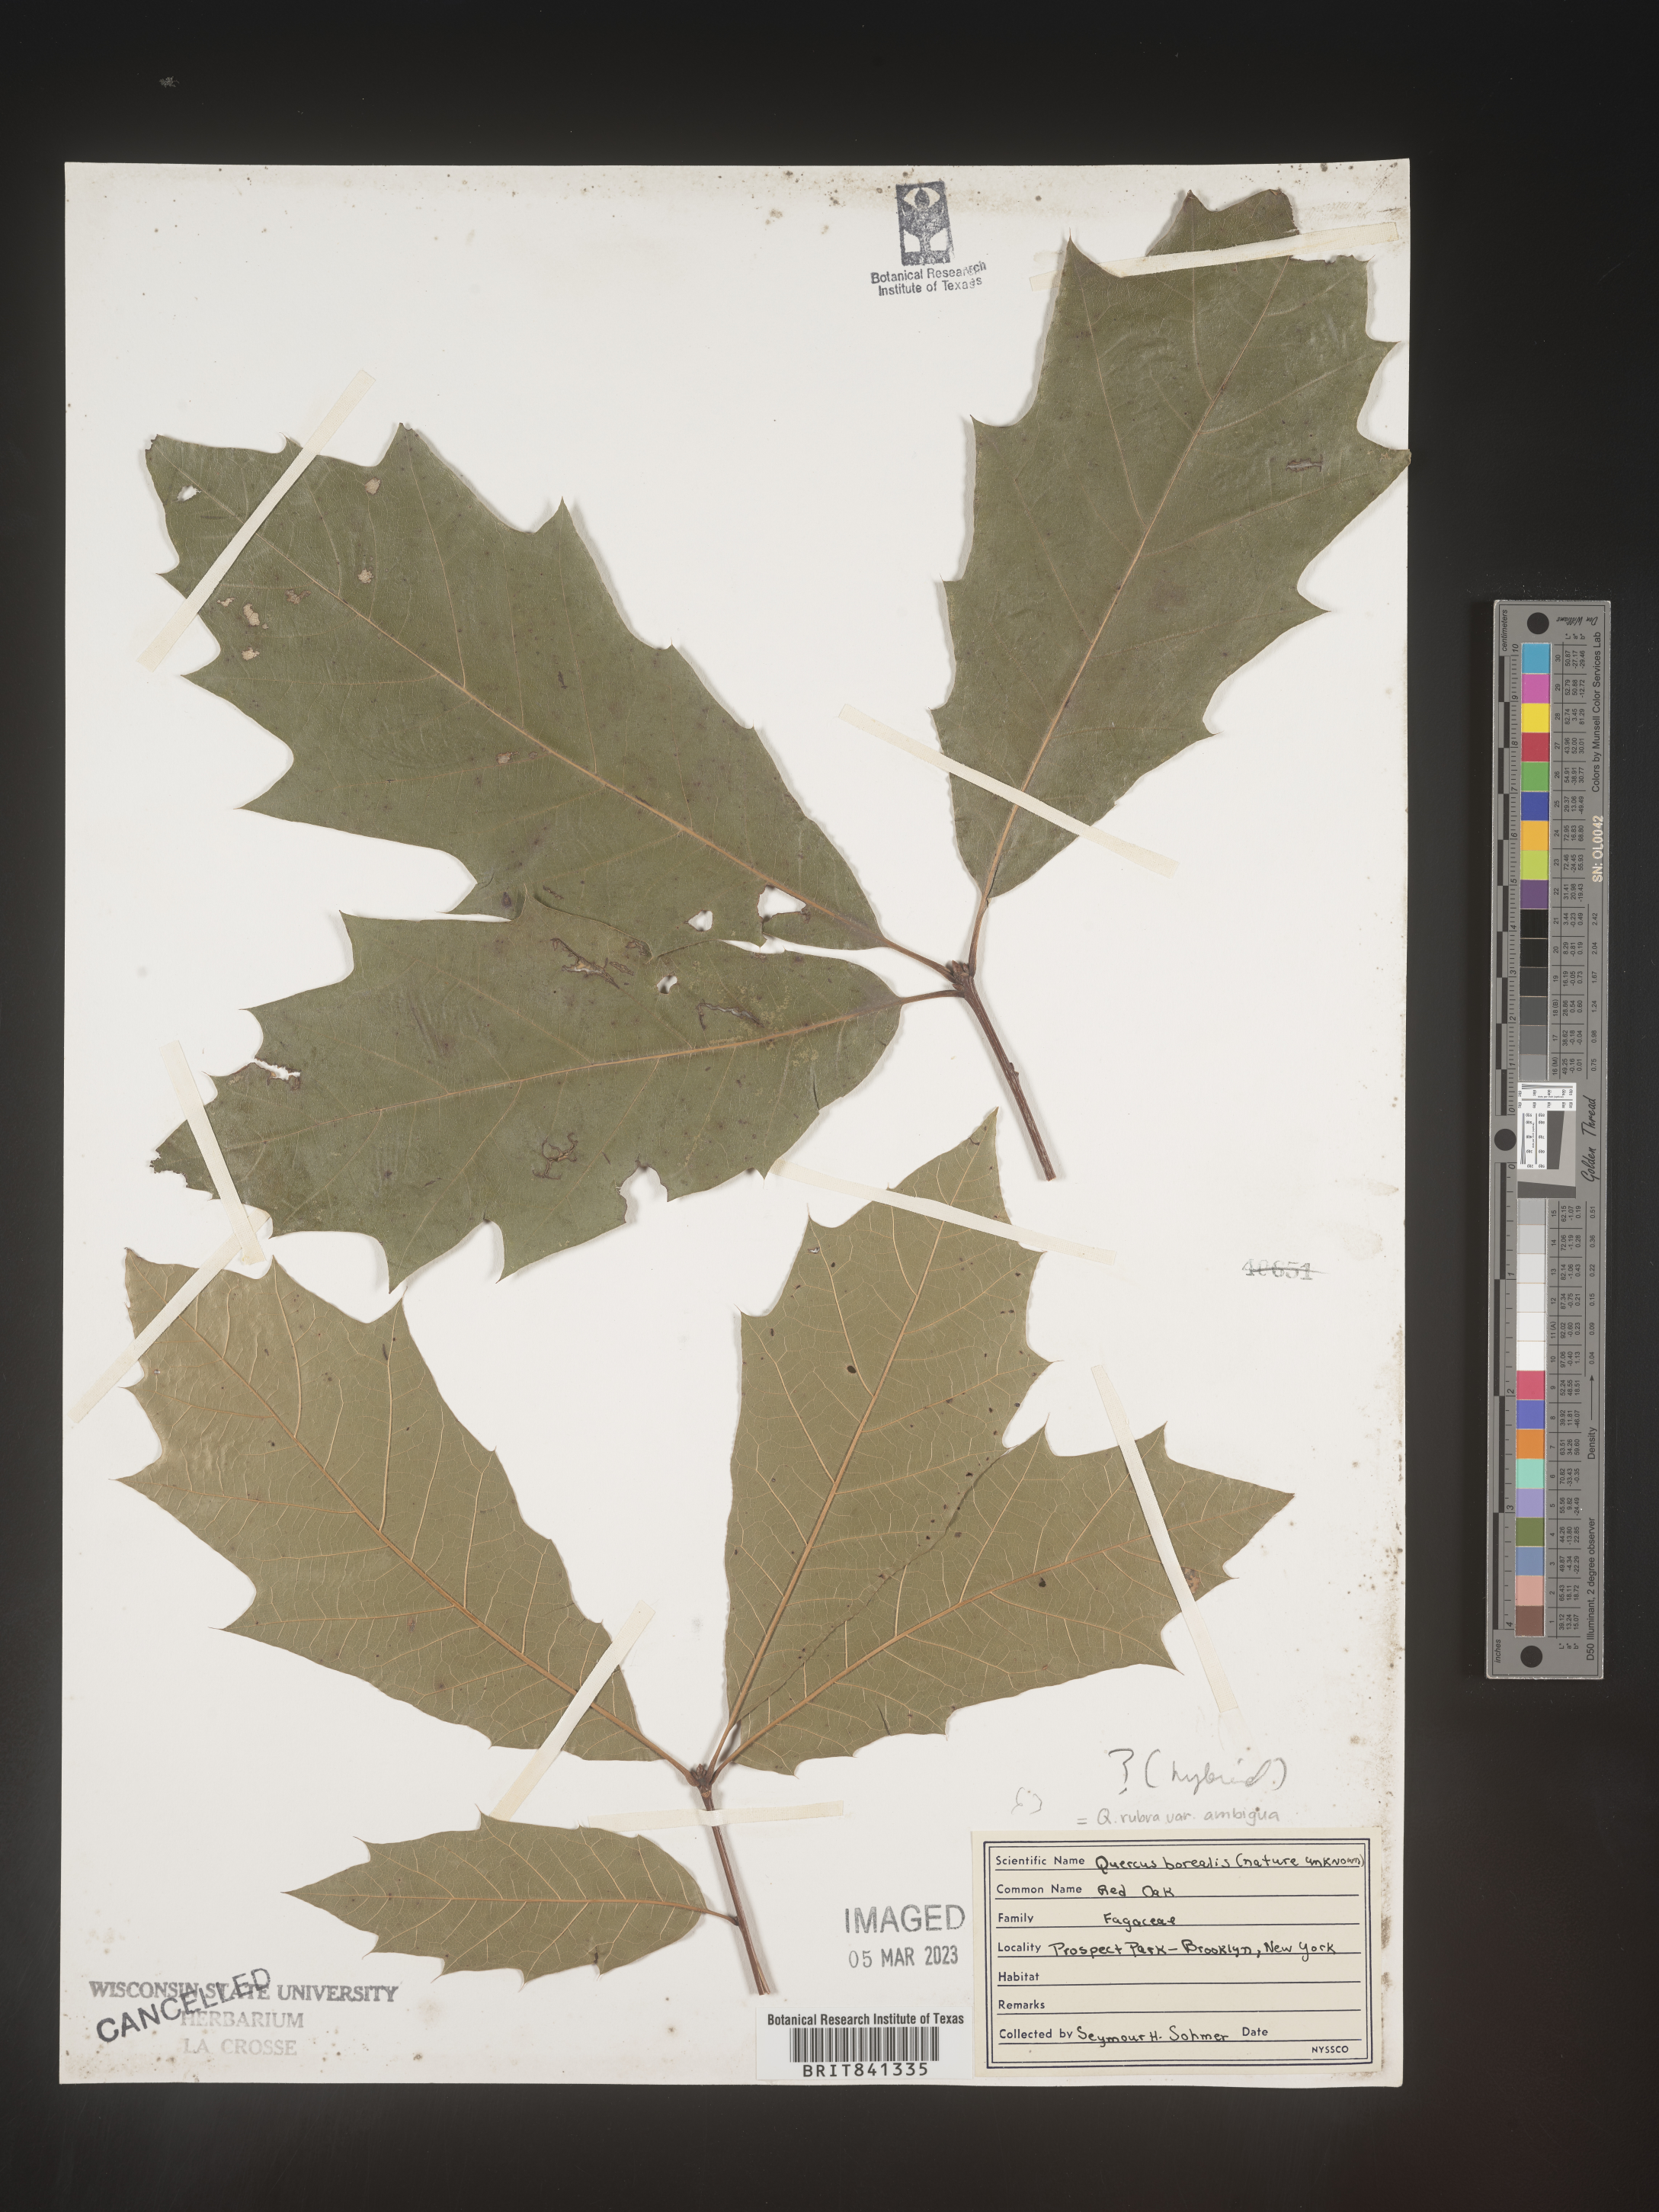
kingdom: Plantae
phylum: Tracheophyta
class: Magnoliopsida
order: Fagales
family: Fagaceae
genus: Quercus
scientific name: Quercus rubra
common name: Red oak
